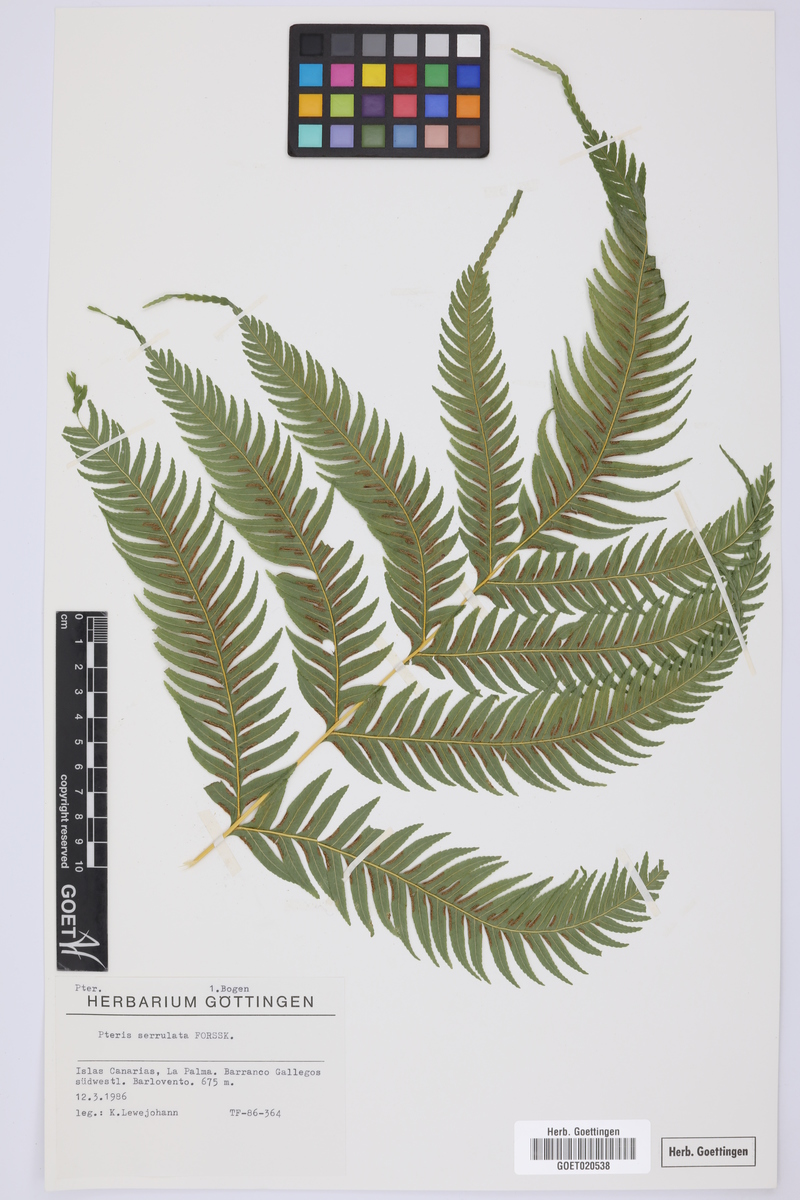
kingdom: Plantae
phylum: Tracheophyta
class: Polypodiopsida
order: Polypodiales
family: Pteridaceae
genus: Pteris
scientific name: Pteris dentata
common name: Toothed brake
